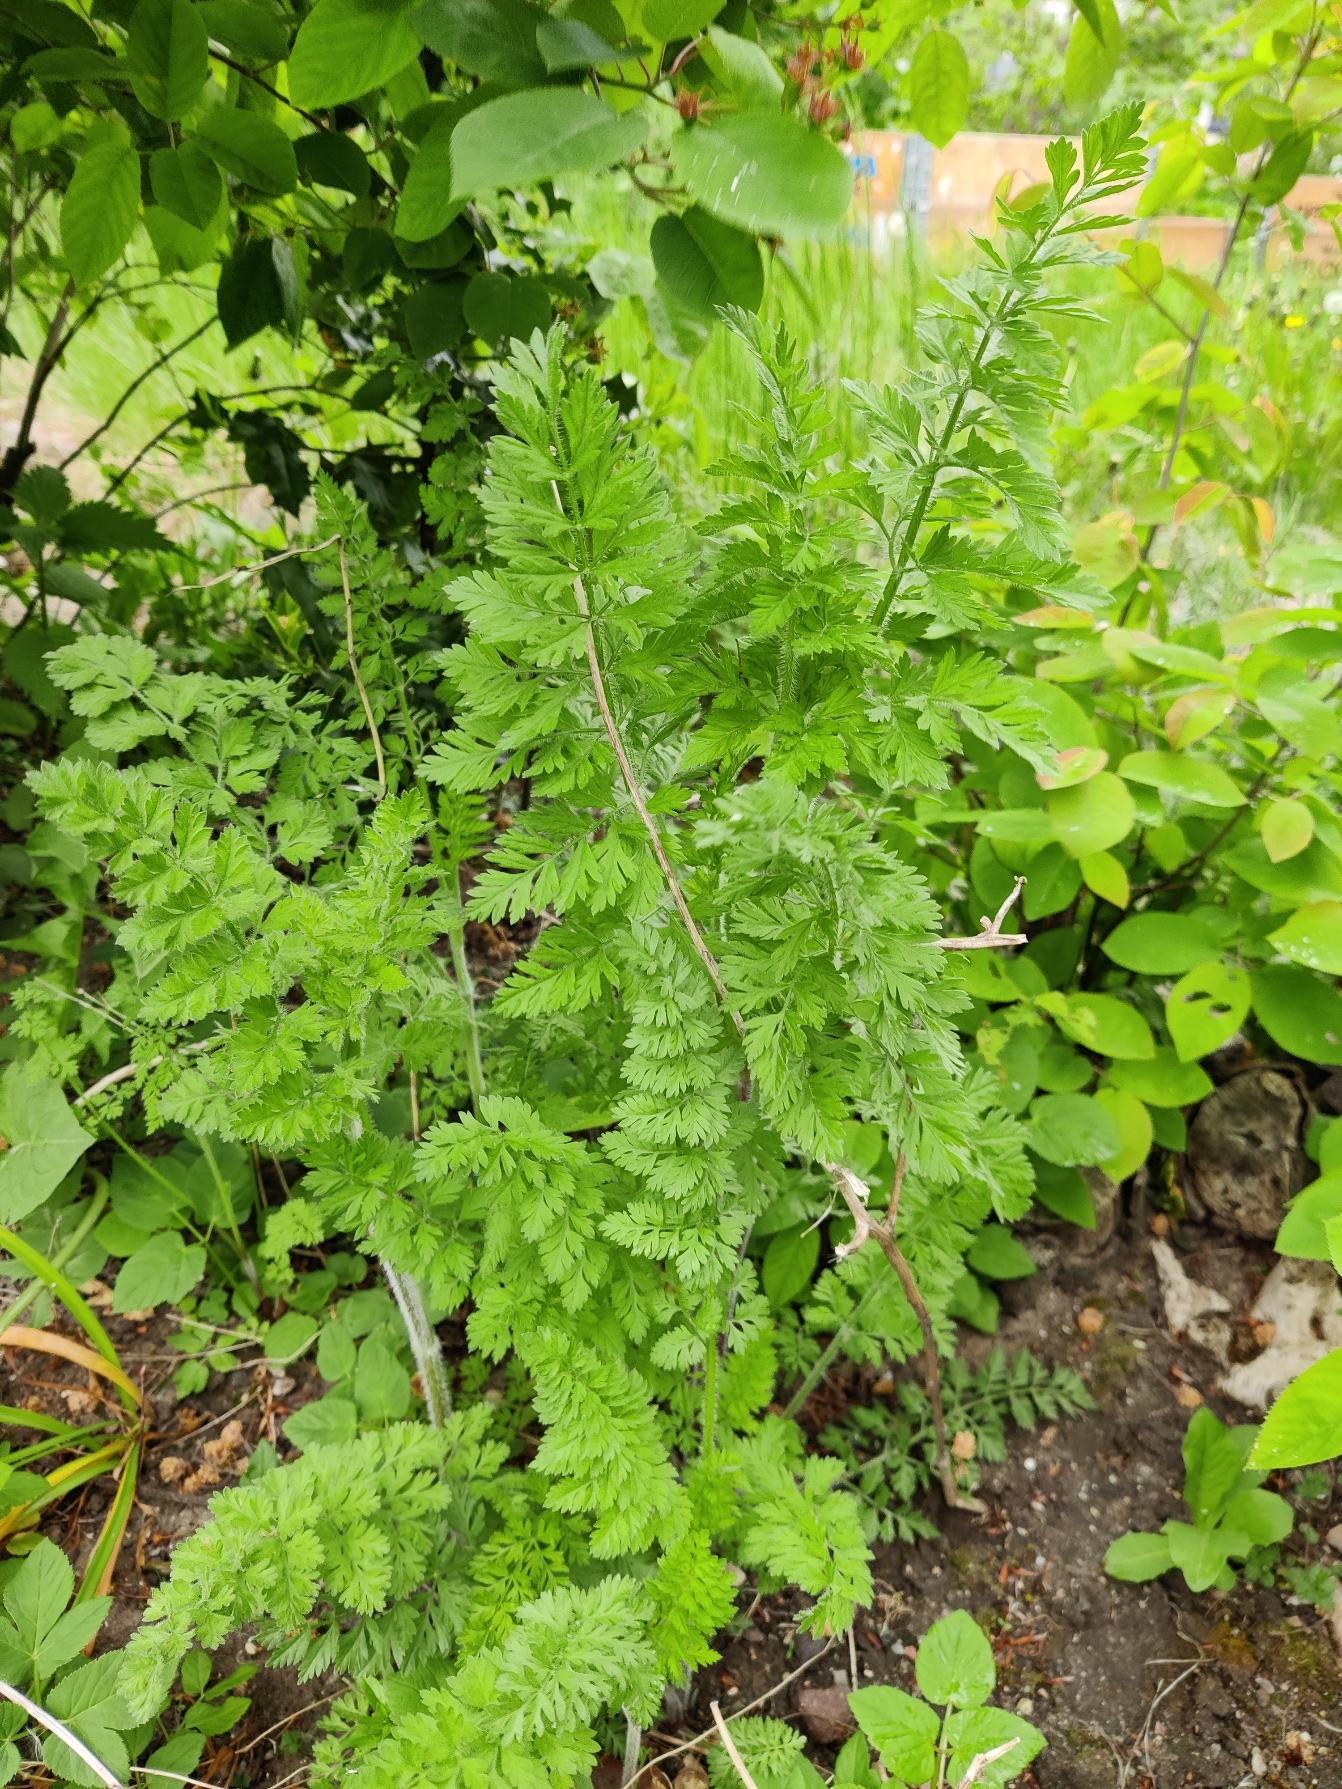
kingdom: Plantae
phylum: Tracheophyta
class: Magnoliopsida
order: Apiales
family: Apiaceae
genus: Daucus
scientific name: Daucus carota
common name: Vild gulerod
